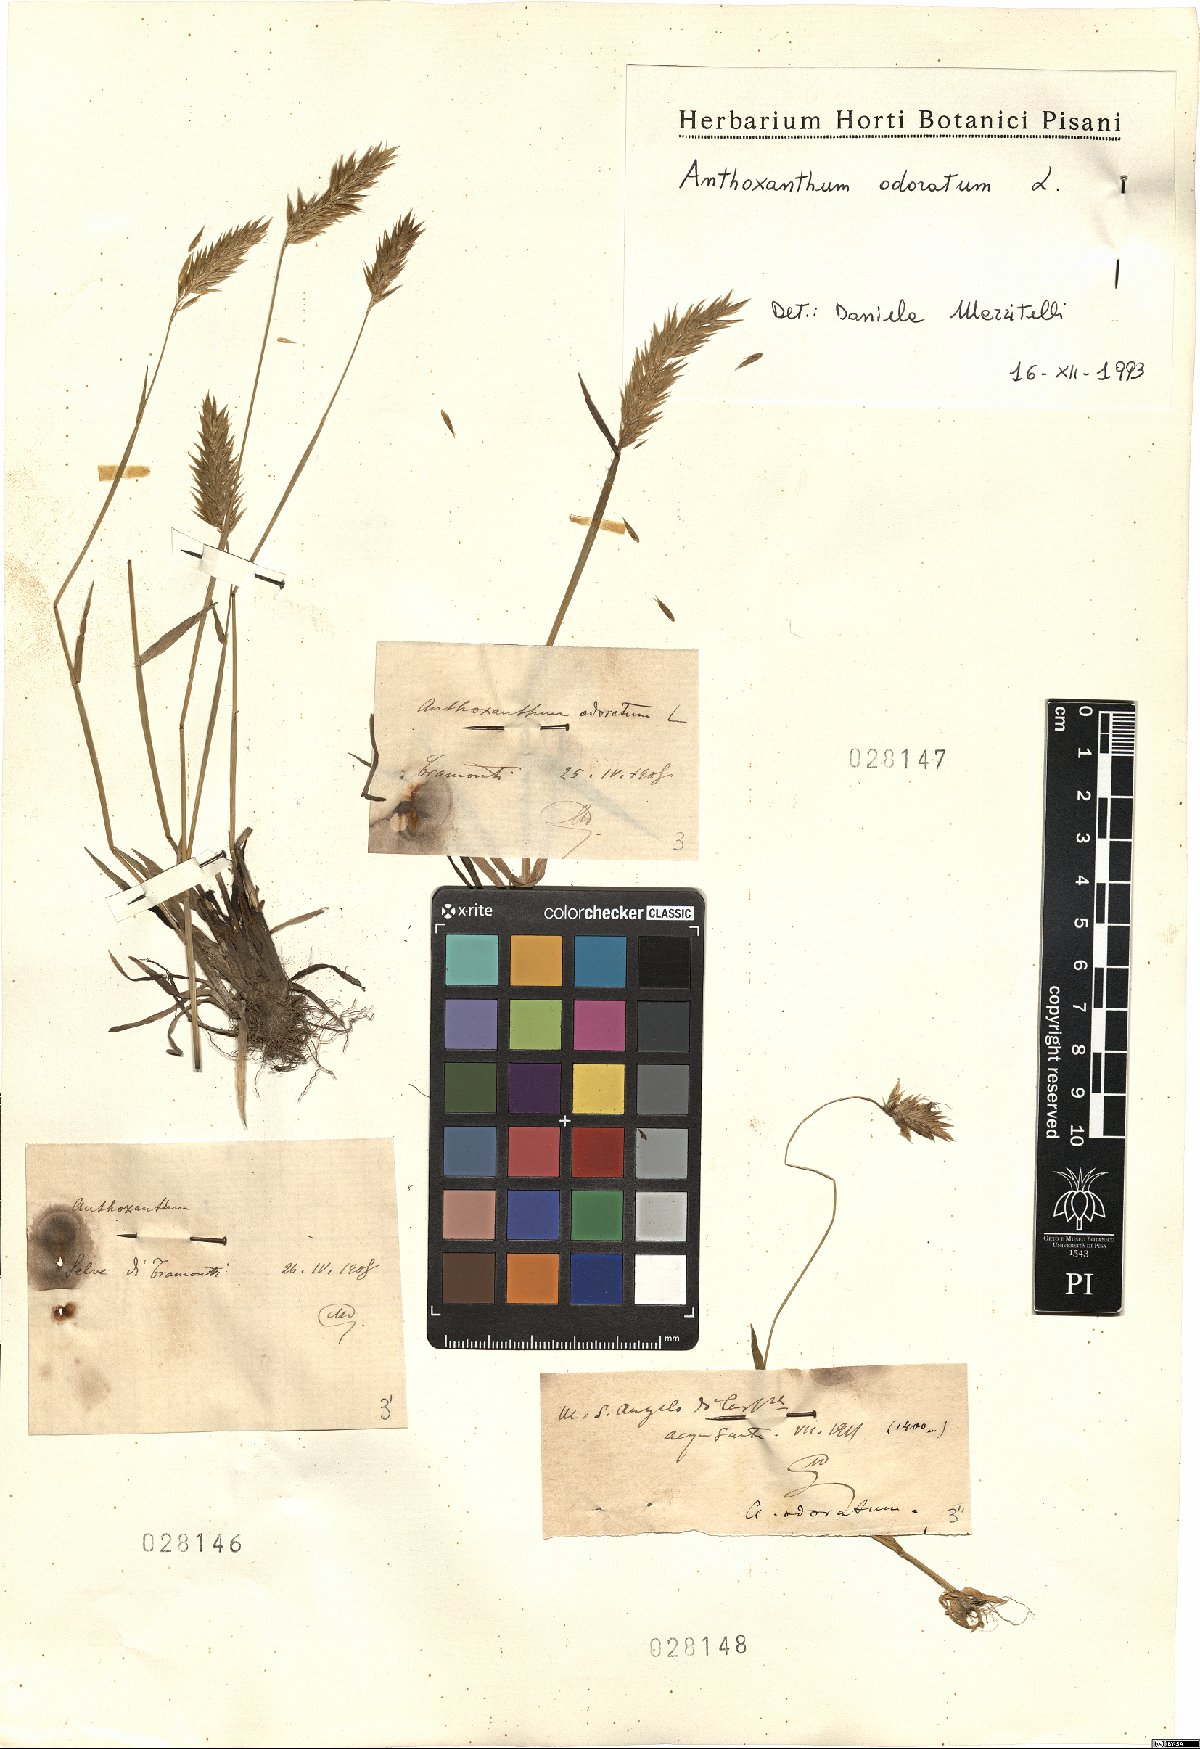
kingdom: Plantae
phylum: Tracheophyta
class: Liliopsida
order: Poales
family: Poaceae
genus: Anthoxanthum
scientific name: Anthoxanthum odoratum
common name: Sweet vernalgrass
